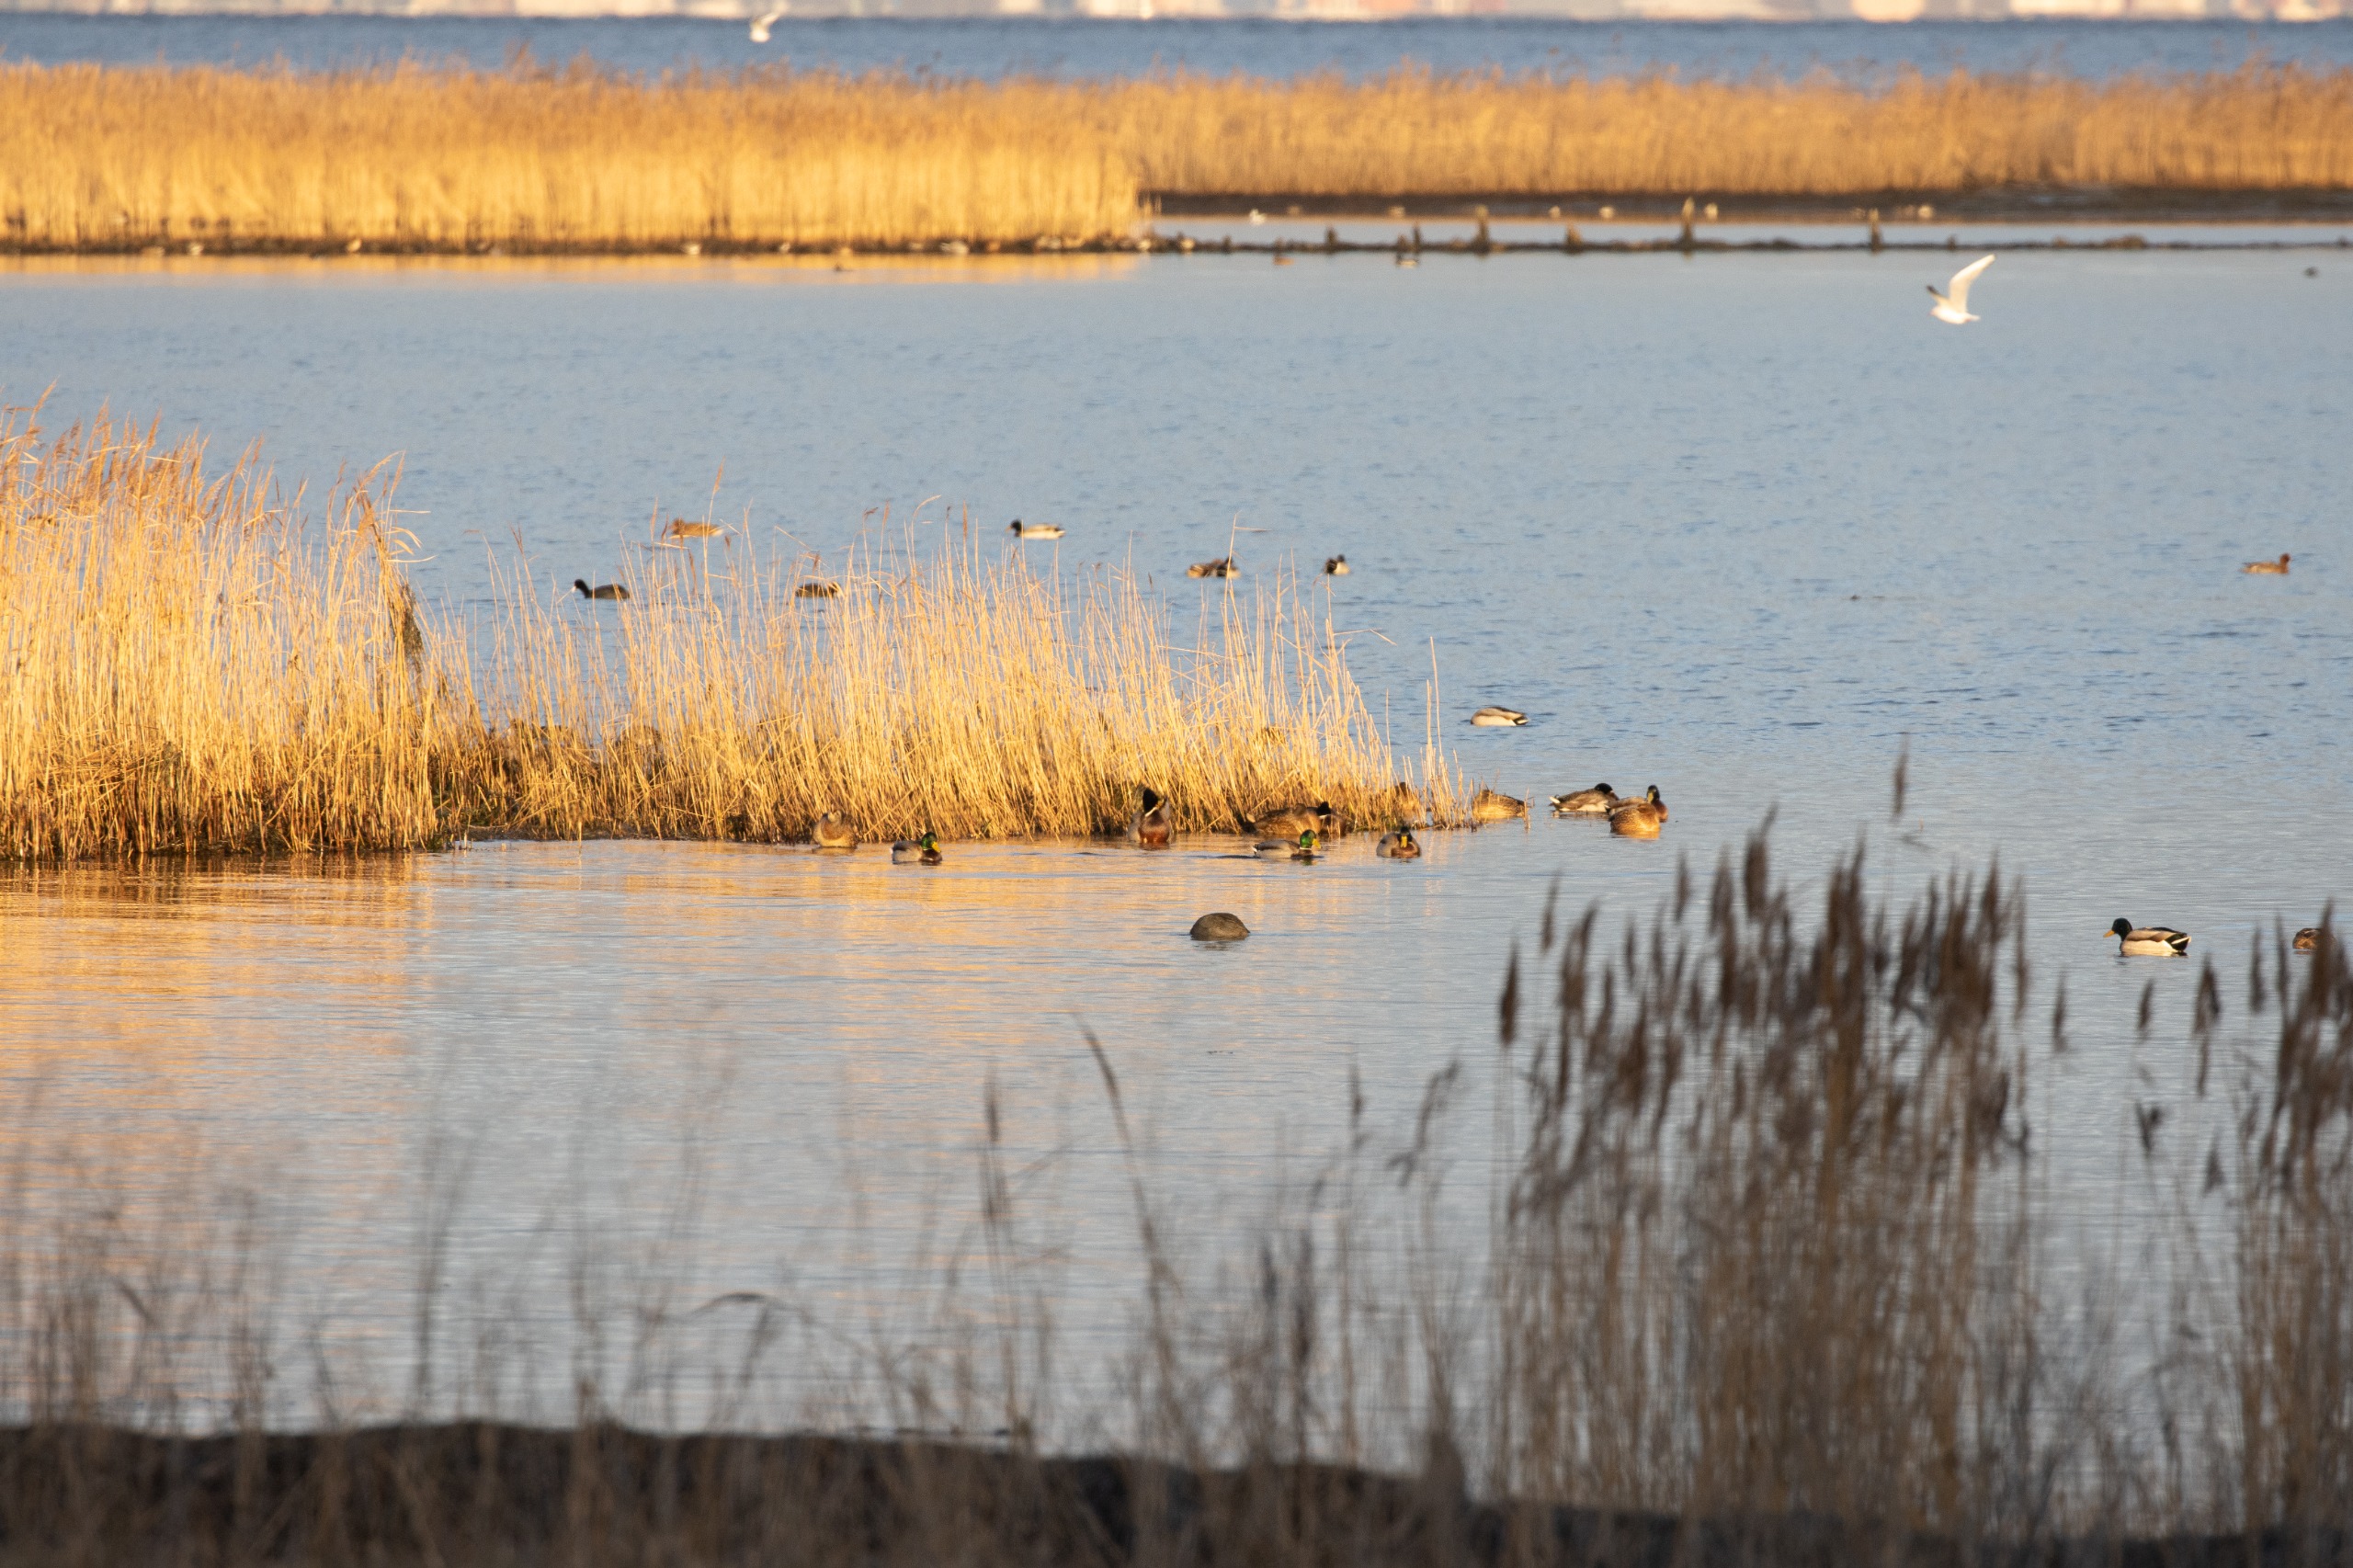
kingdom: Animalia
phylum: Chordata
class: Aves
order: Anseriformes
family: Anatidae
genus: Anas
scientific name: Anas platyrhynchos
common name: Gråand
